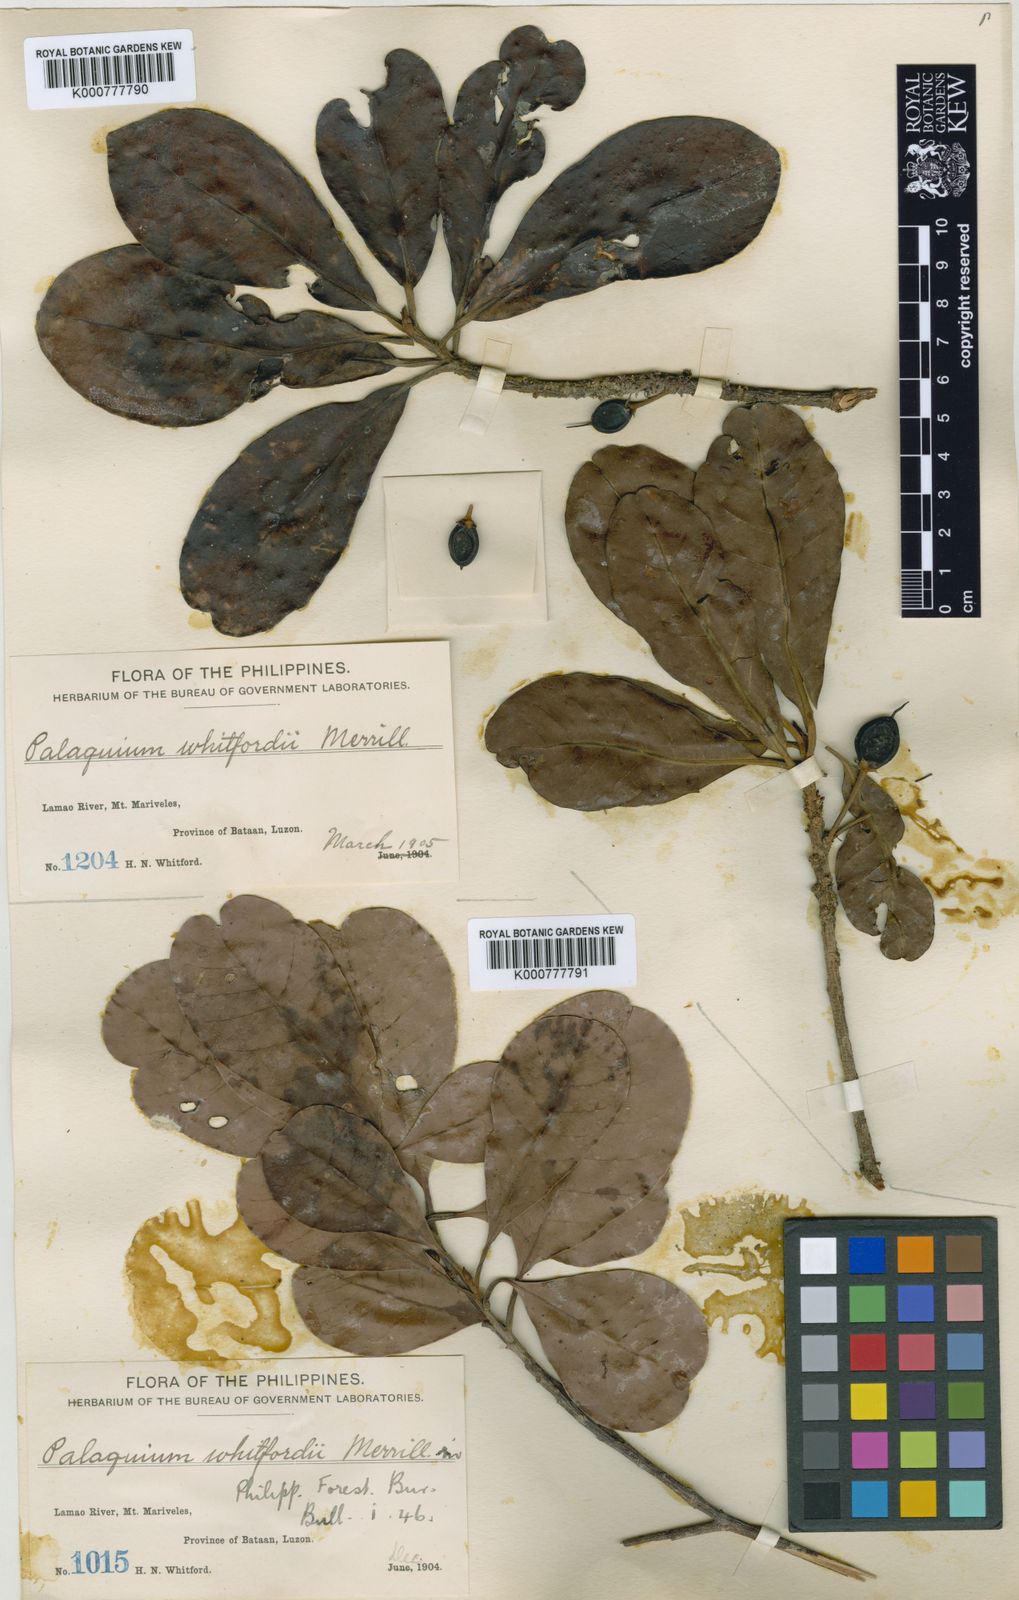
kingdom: Plantae
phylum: Tracheophyta
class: Magnoliopsida
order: Ericales
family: Sapotaceae
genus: Palaquium
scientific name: Palaquium bataanense
